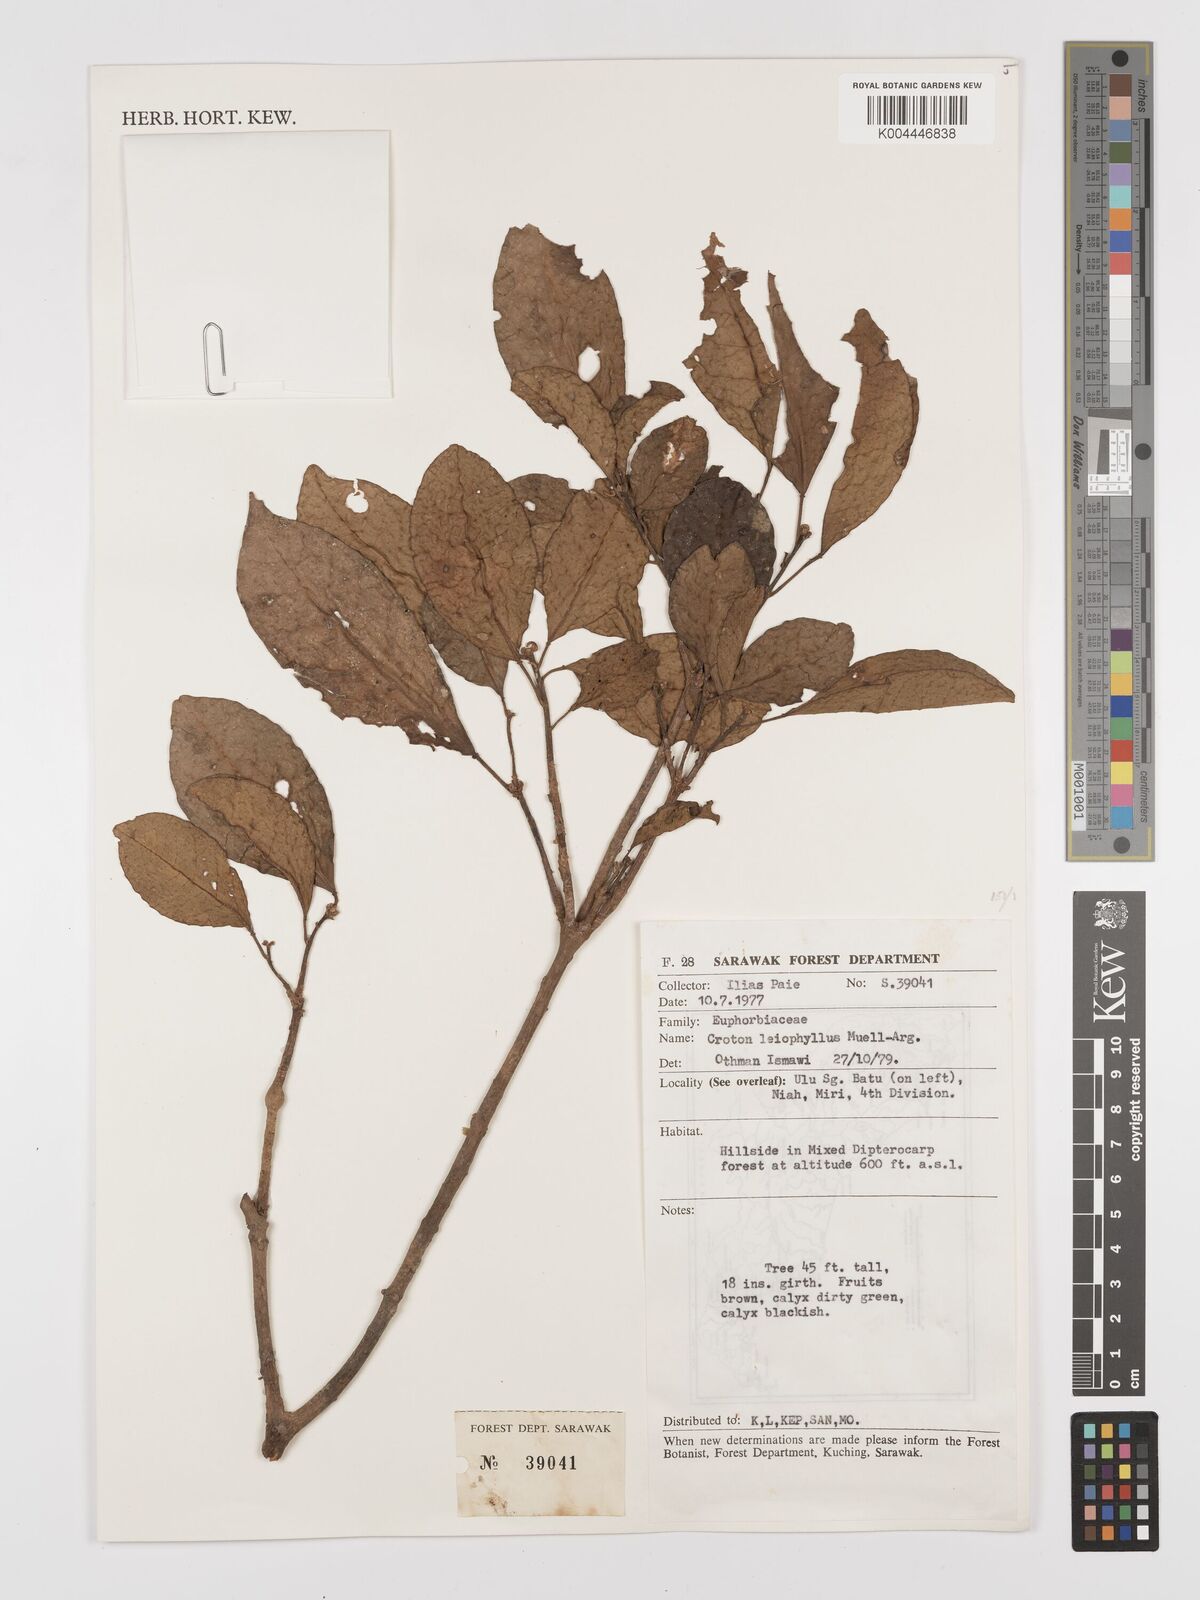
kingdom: Plantae
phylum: Tracheophyta
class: Magnoliopsida
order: Malpighiales
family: Euphorbiaceae
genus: Croton
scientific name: Croton leiophyllus
